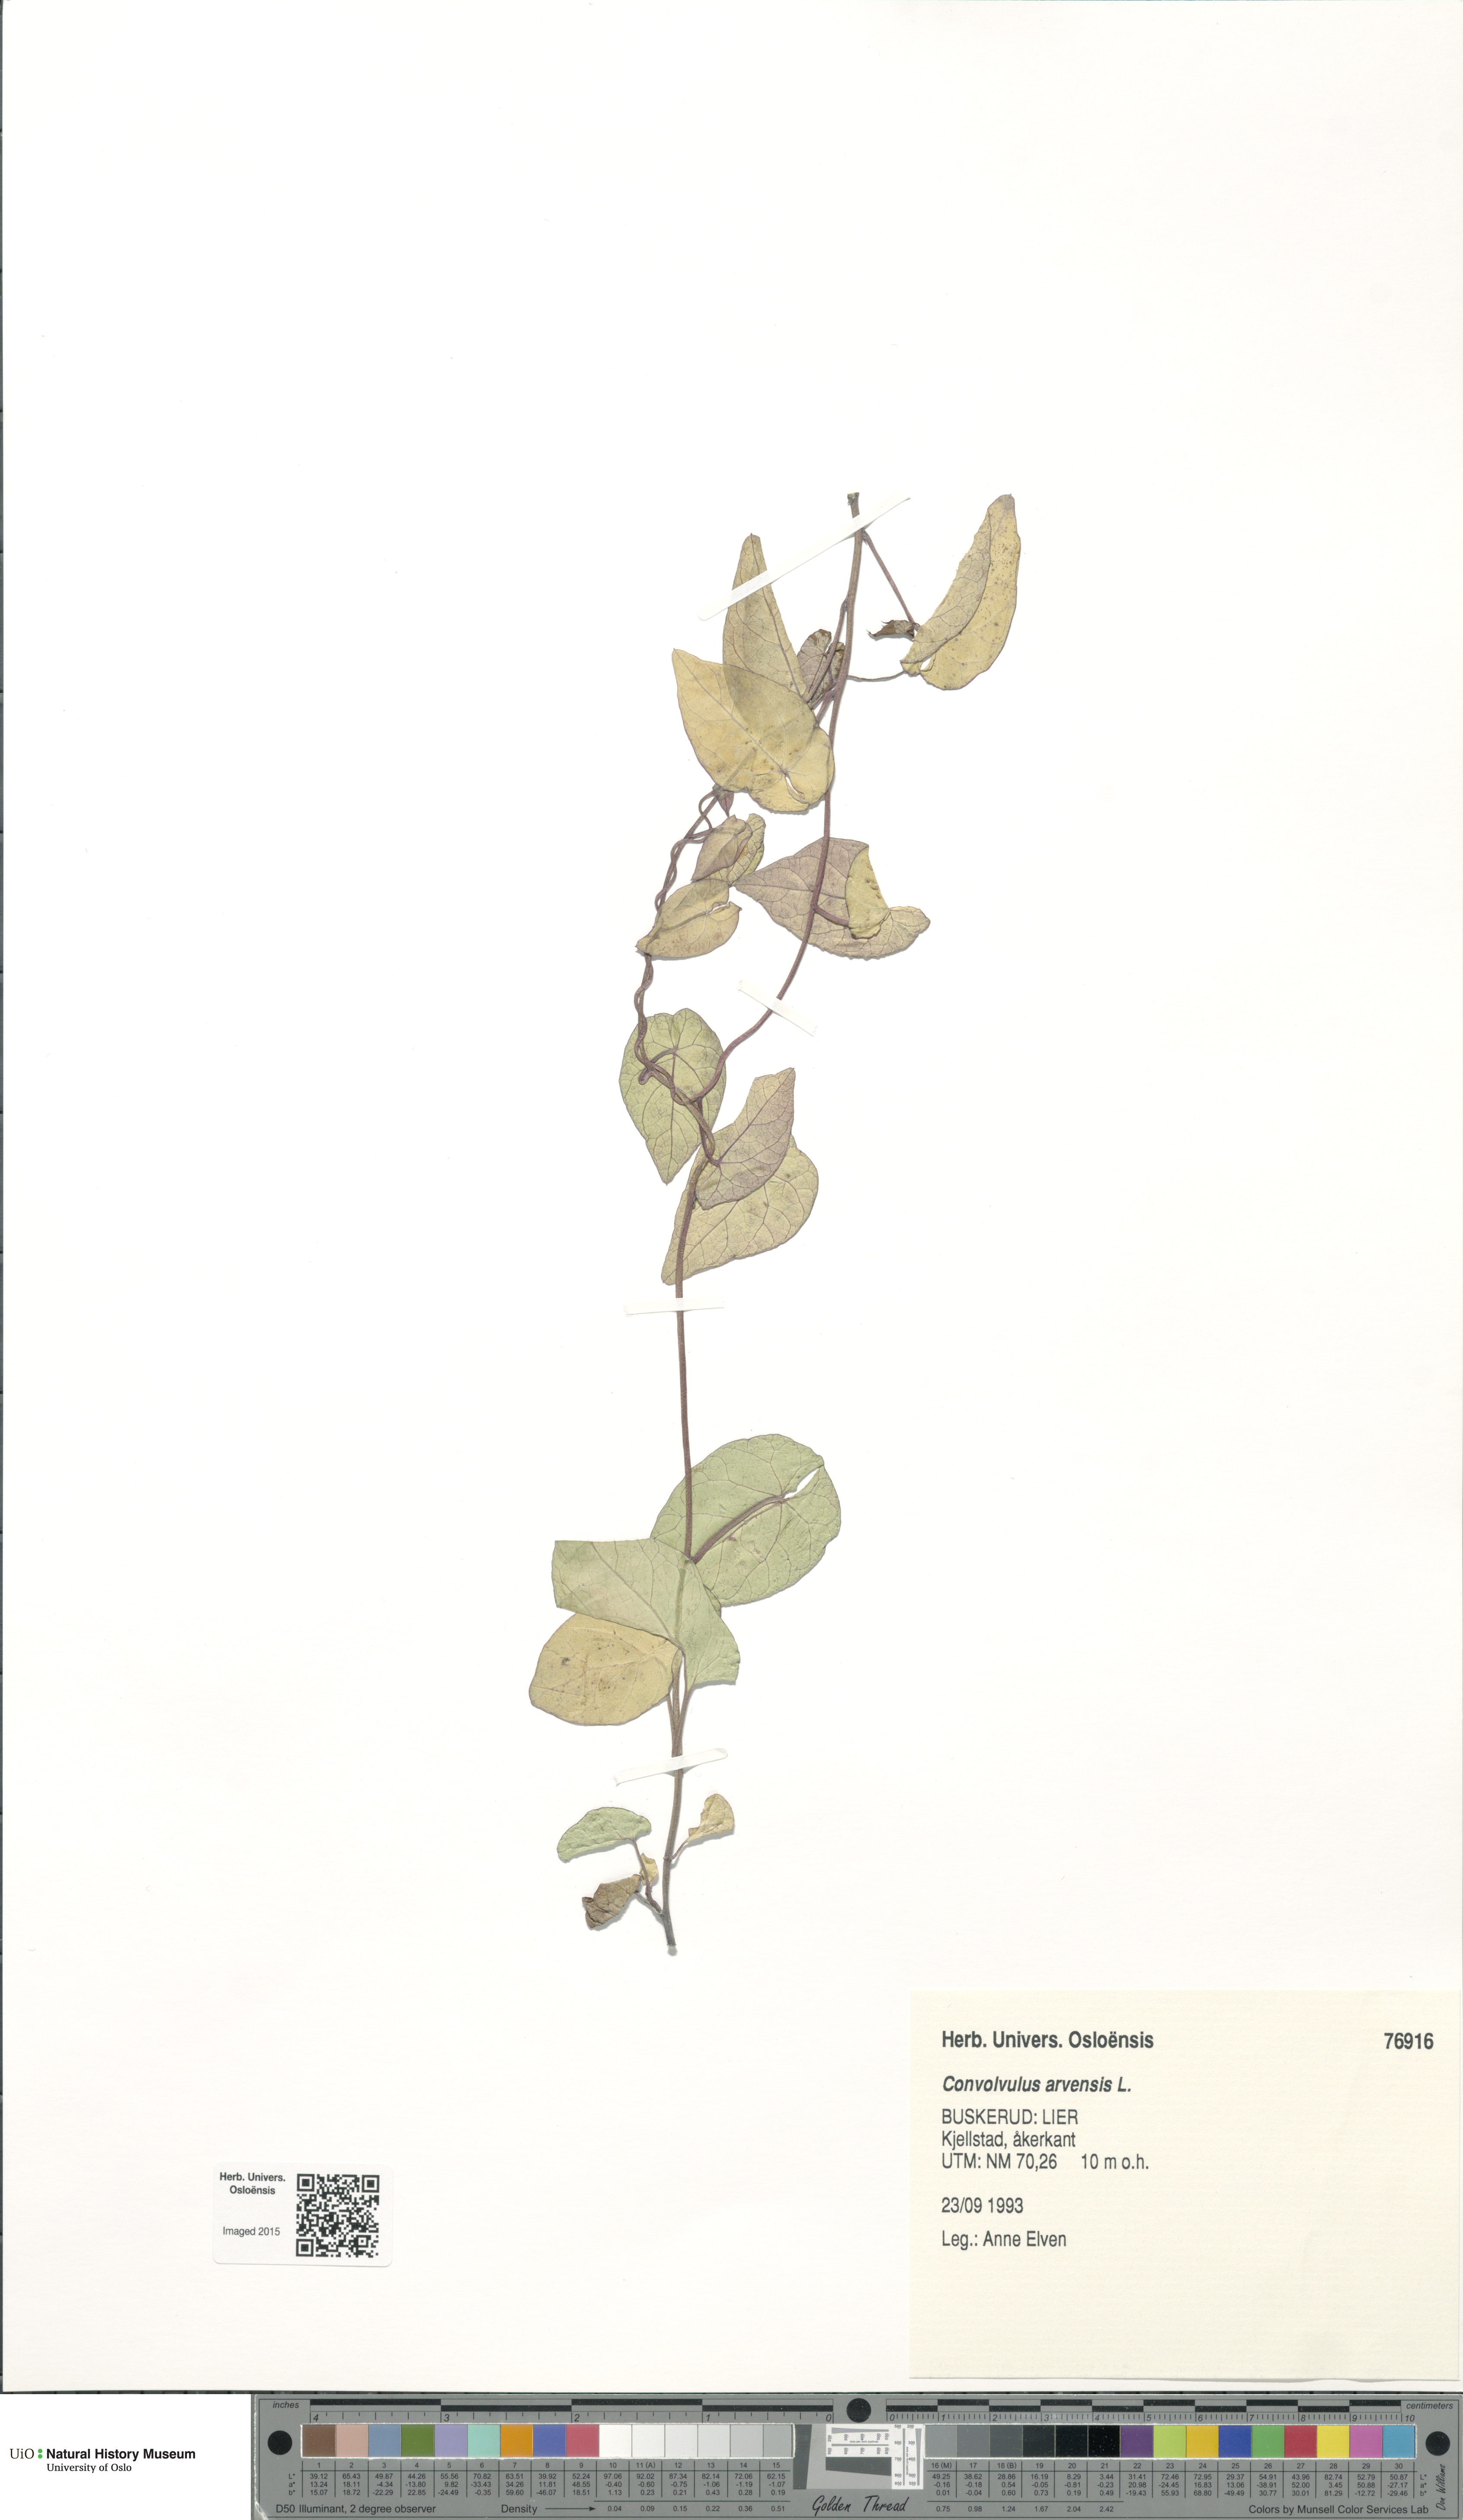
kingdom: Plantae
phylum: Tracheophyta
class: Magnoliopsida
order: Solanales
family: Convolvulaceae
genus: Convolvulus
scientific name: Convolvulus arvensis
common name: Field bindweed
